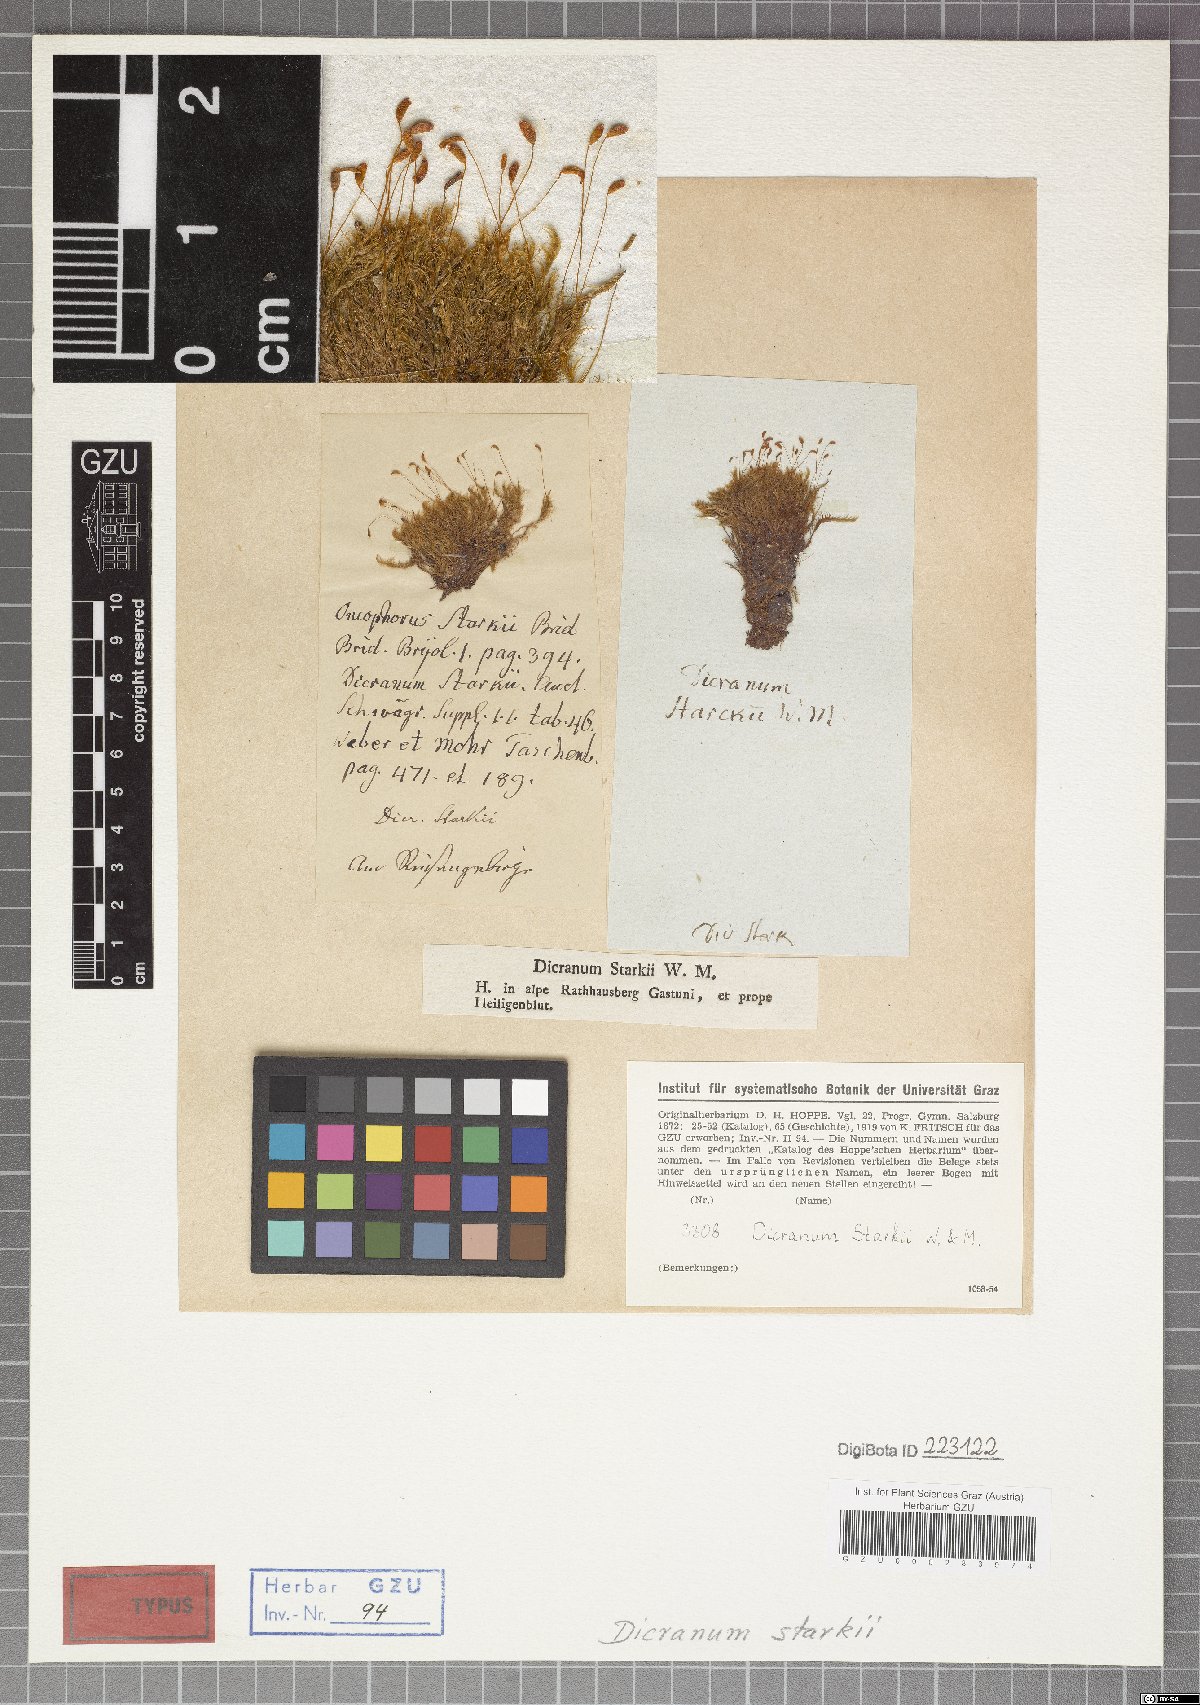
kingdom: Plantae
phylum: Bryophyta
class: Bryopsida
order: Dicranales
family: Rhabdoweisiaceae
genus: Arctoa
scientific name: Arctoa starkei
